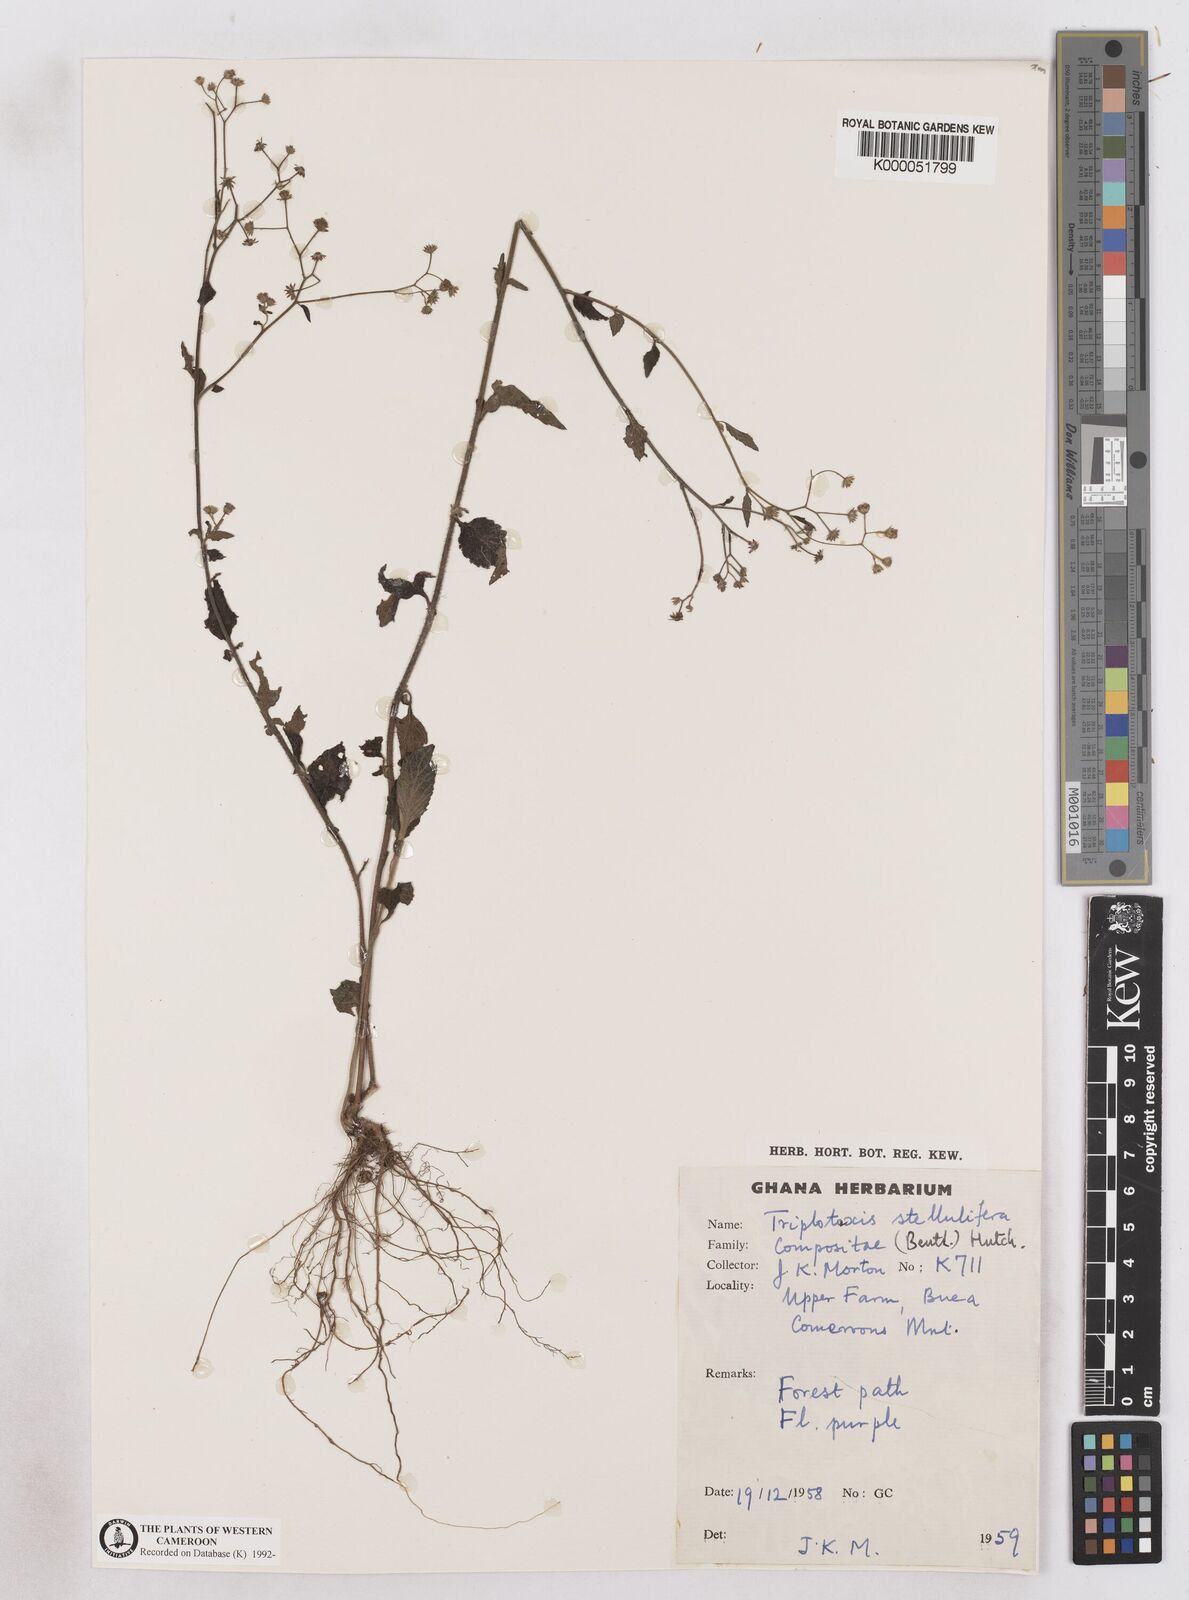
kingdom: Plantae
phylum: Tracheophyta
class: Magnoliopsida
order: Asterales
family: Asteraceae
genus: Cyanthillium
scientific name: Cyanthillium stelluliferum
